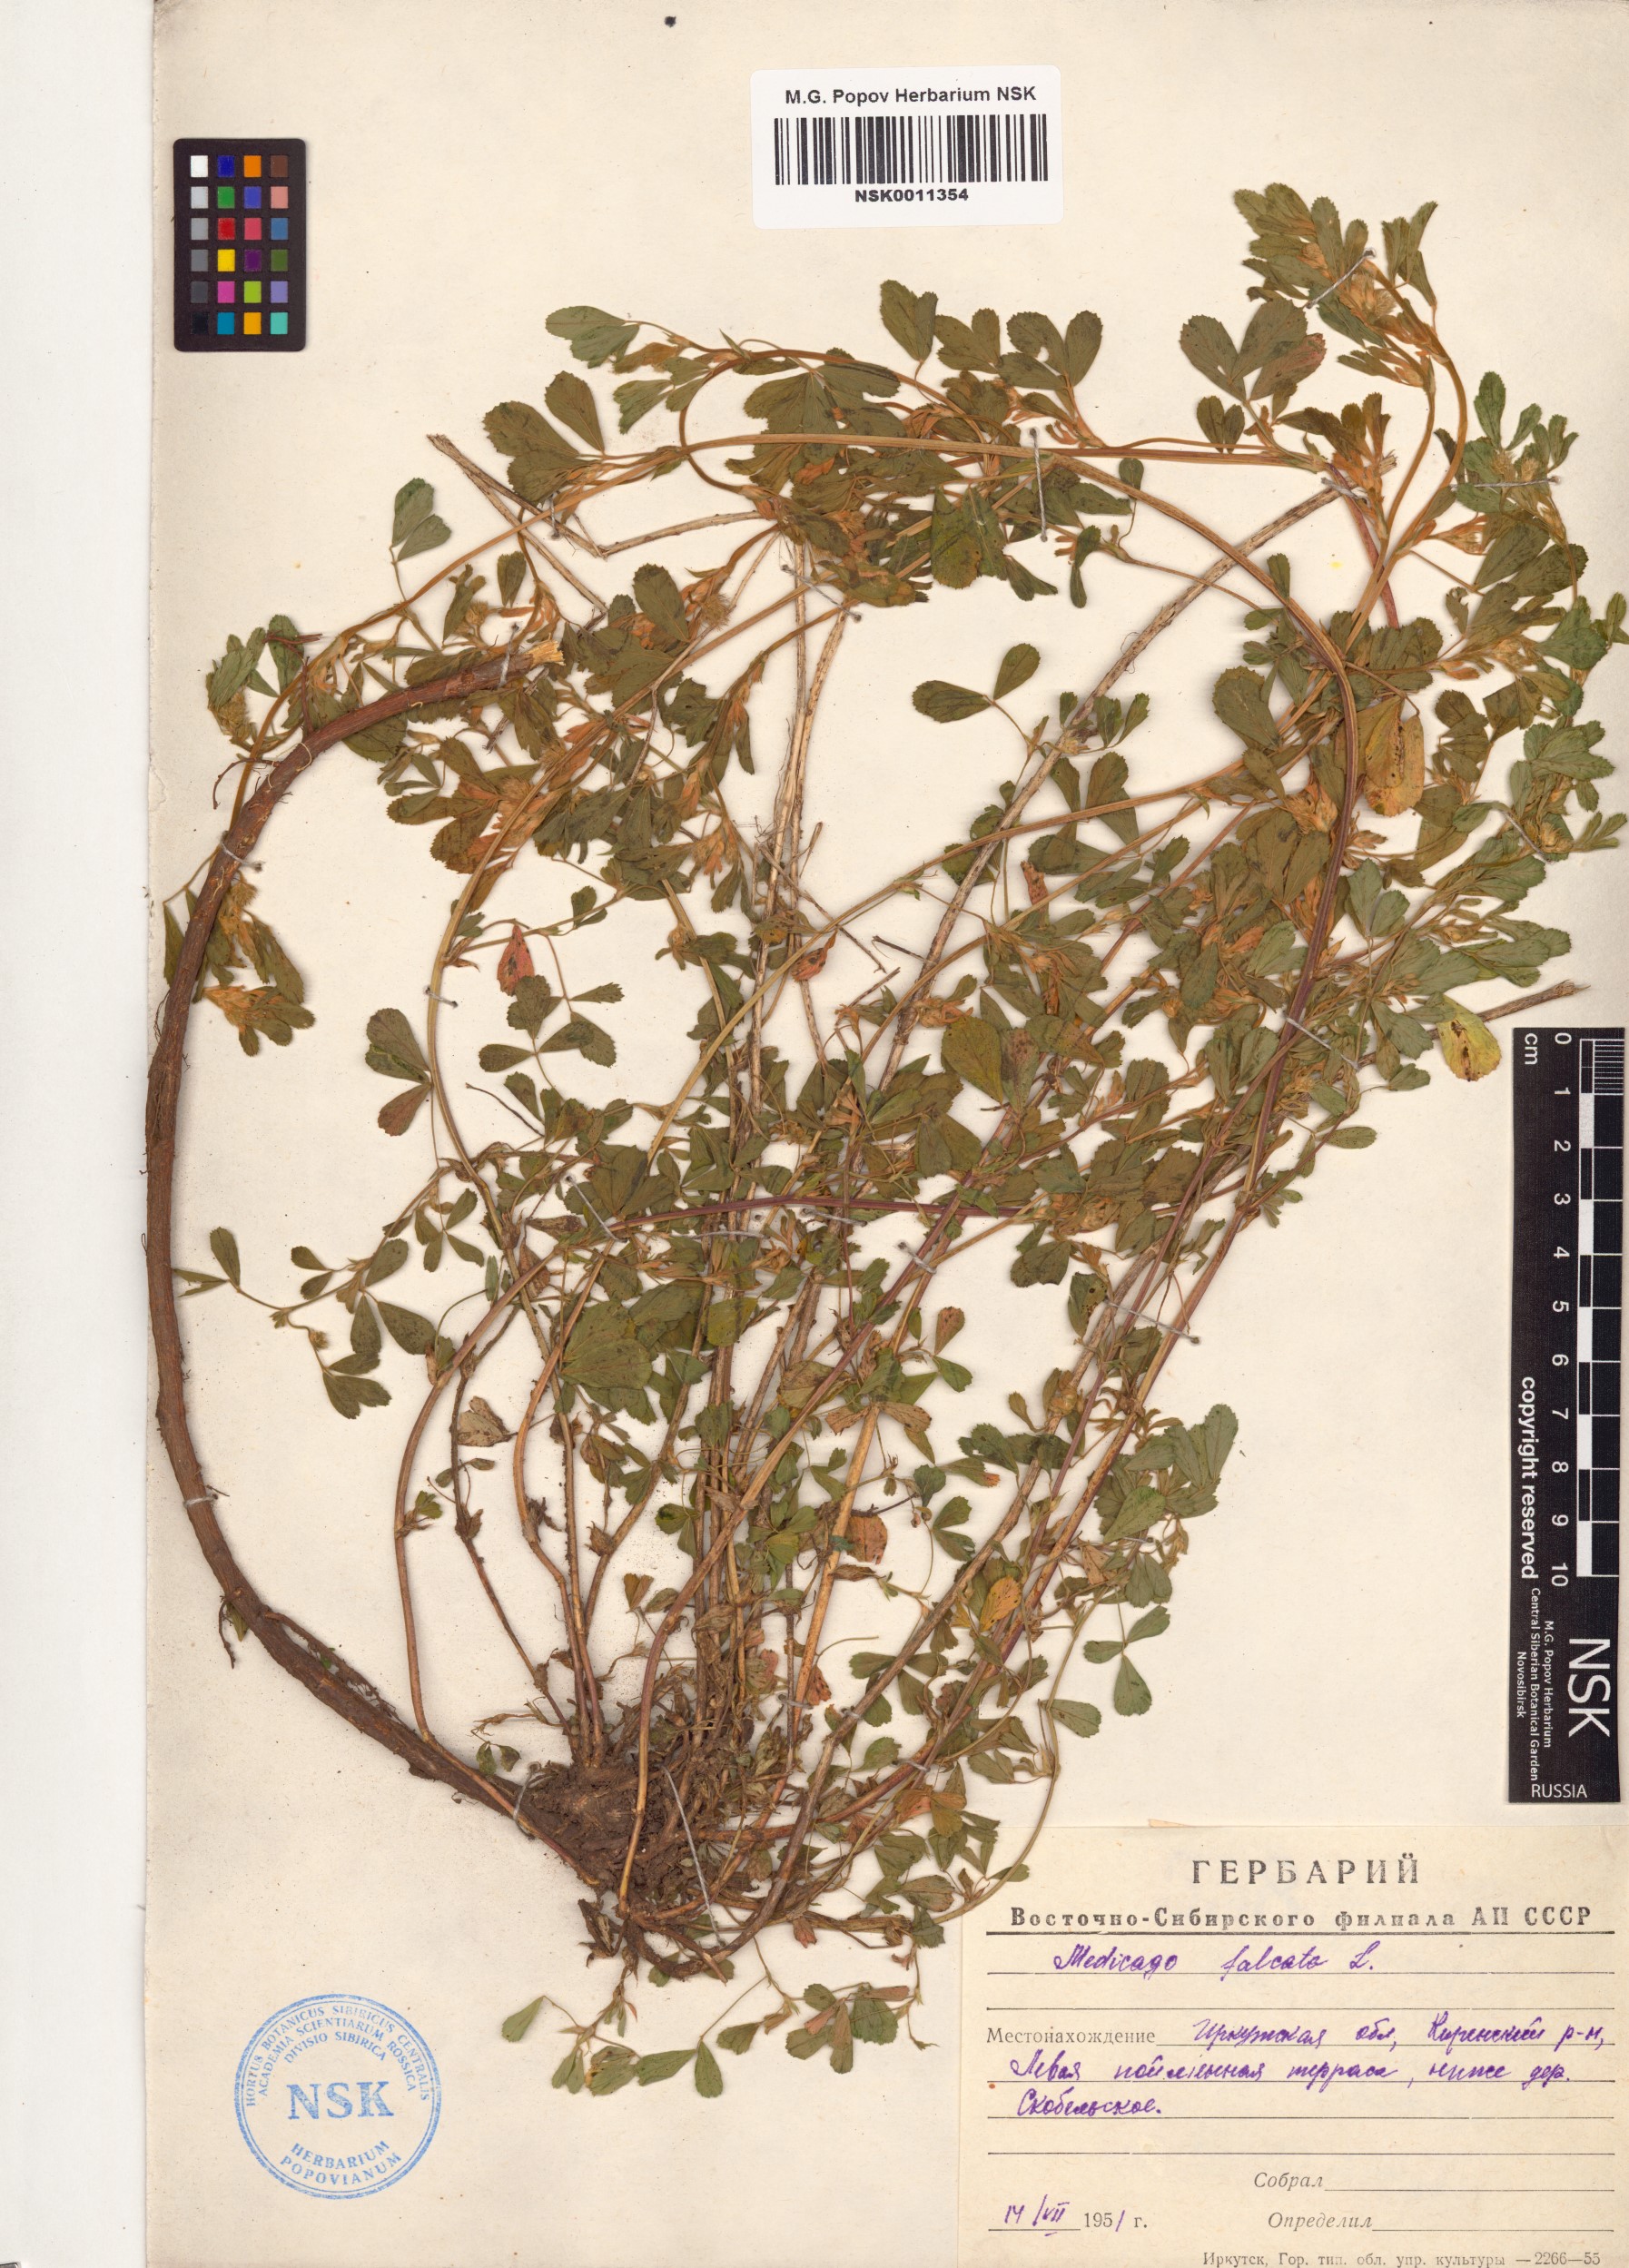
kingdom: Plantae
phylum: Tracheophyta
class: Magnoliopsida
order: Fabales
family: Fabaceae
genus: Medicago
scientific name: Medicago falcata
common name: Sickle medick
